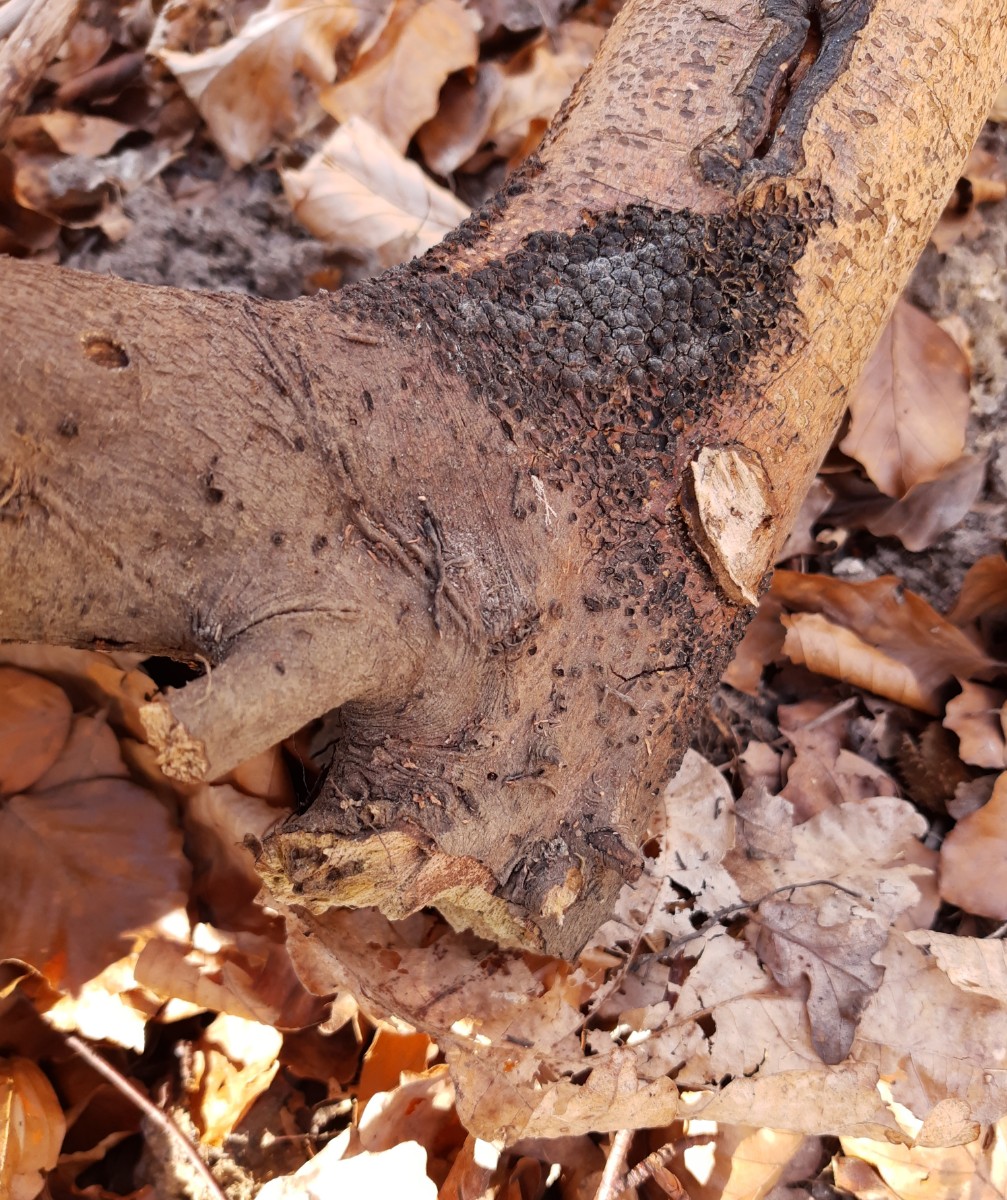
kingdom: Fungi
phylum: Ascomycota
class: Sordariomycetes
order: Xylariales
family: Melogrammataceae
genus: Melogramma
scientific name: Melogramma spiniferum
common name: bøgefod-kulhals
